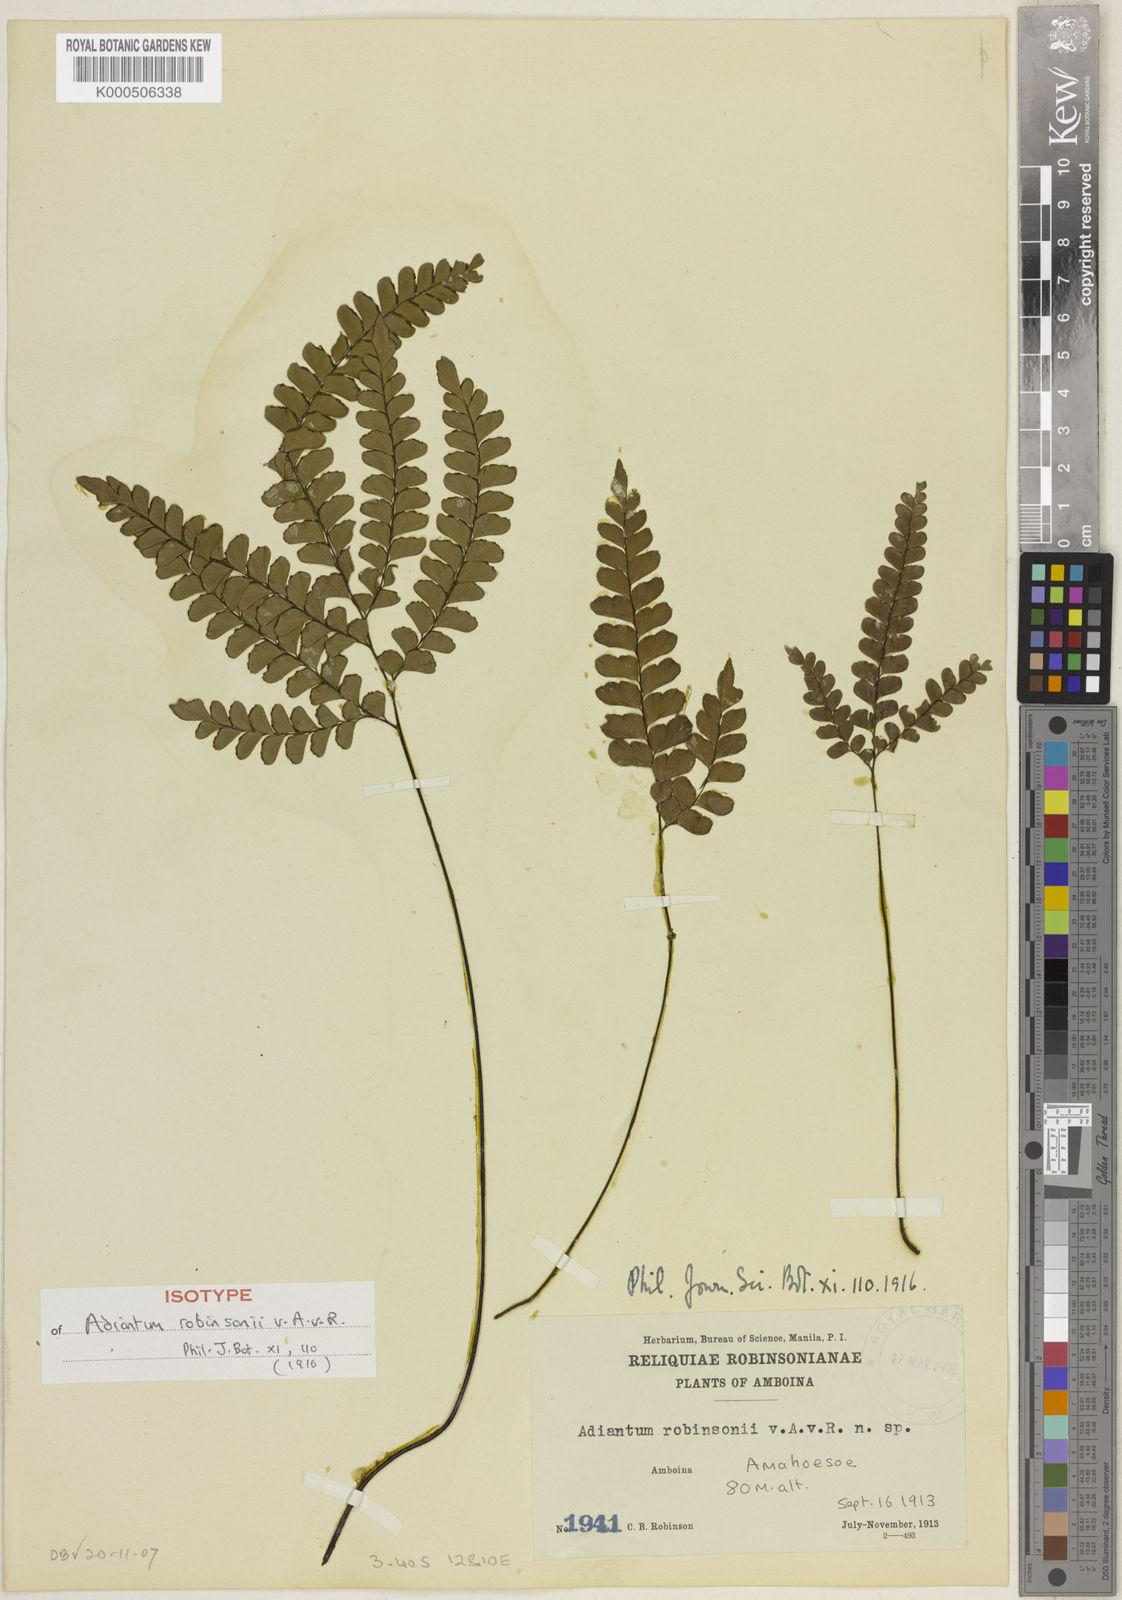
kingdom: Plantae
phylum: Tracheophyta
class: Polypodiopsida
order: Polypodiales
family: Pteridaceae
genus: Adiantum
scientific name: Adiantum monosorum
